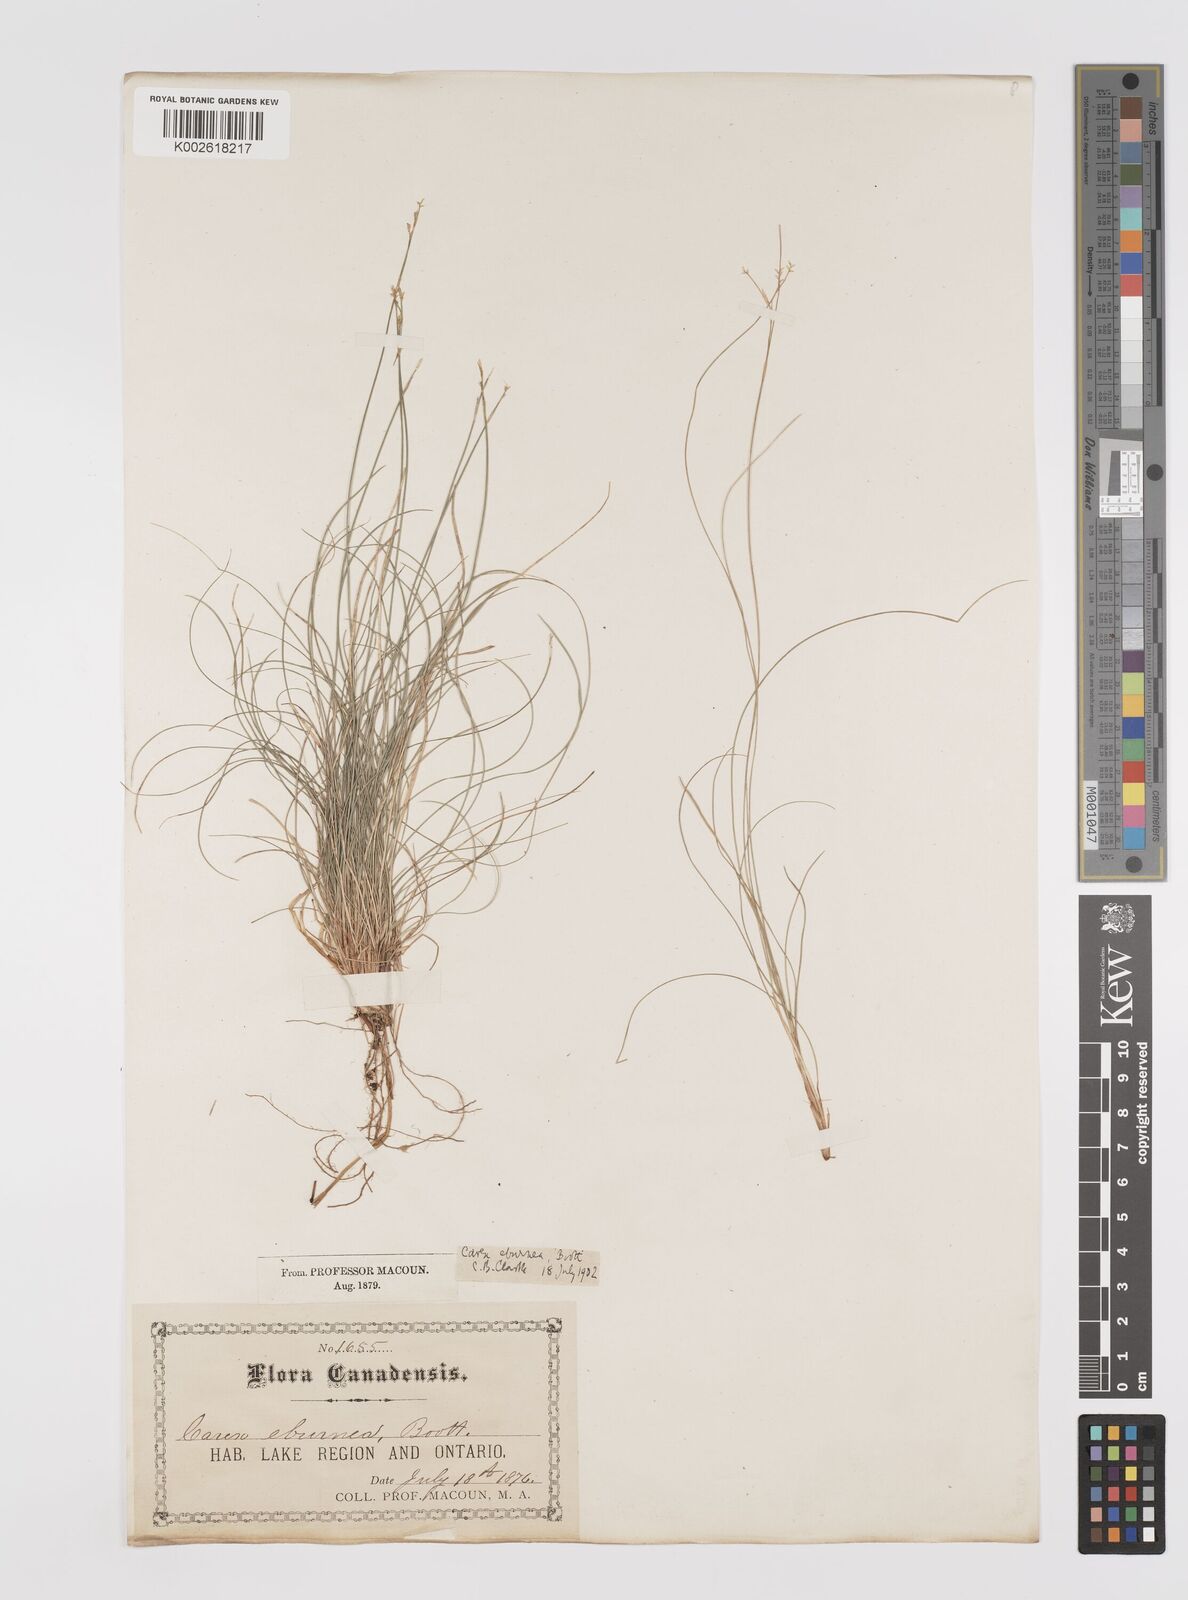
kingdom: Plantae
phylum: Tracheophyta
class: Liliopsida
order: Poales
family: Cyperaceae
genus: Carex
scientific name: Carex eburnea
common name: Bristle-leaved sedge
